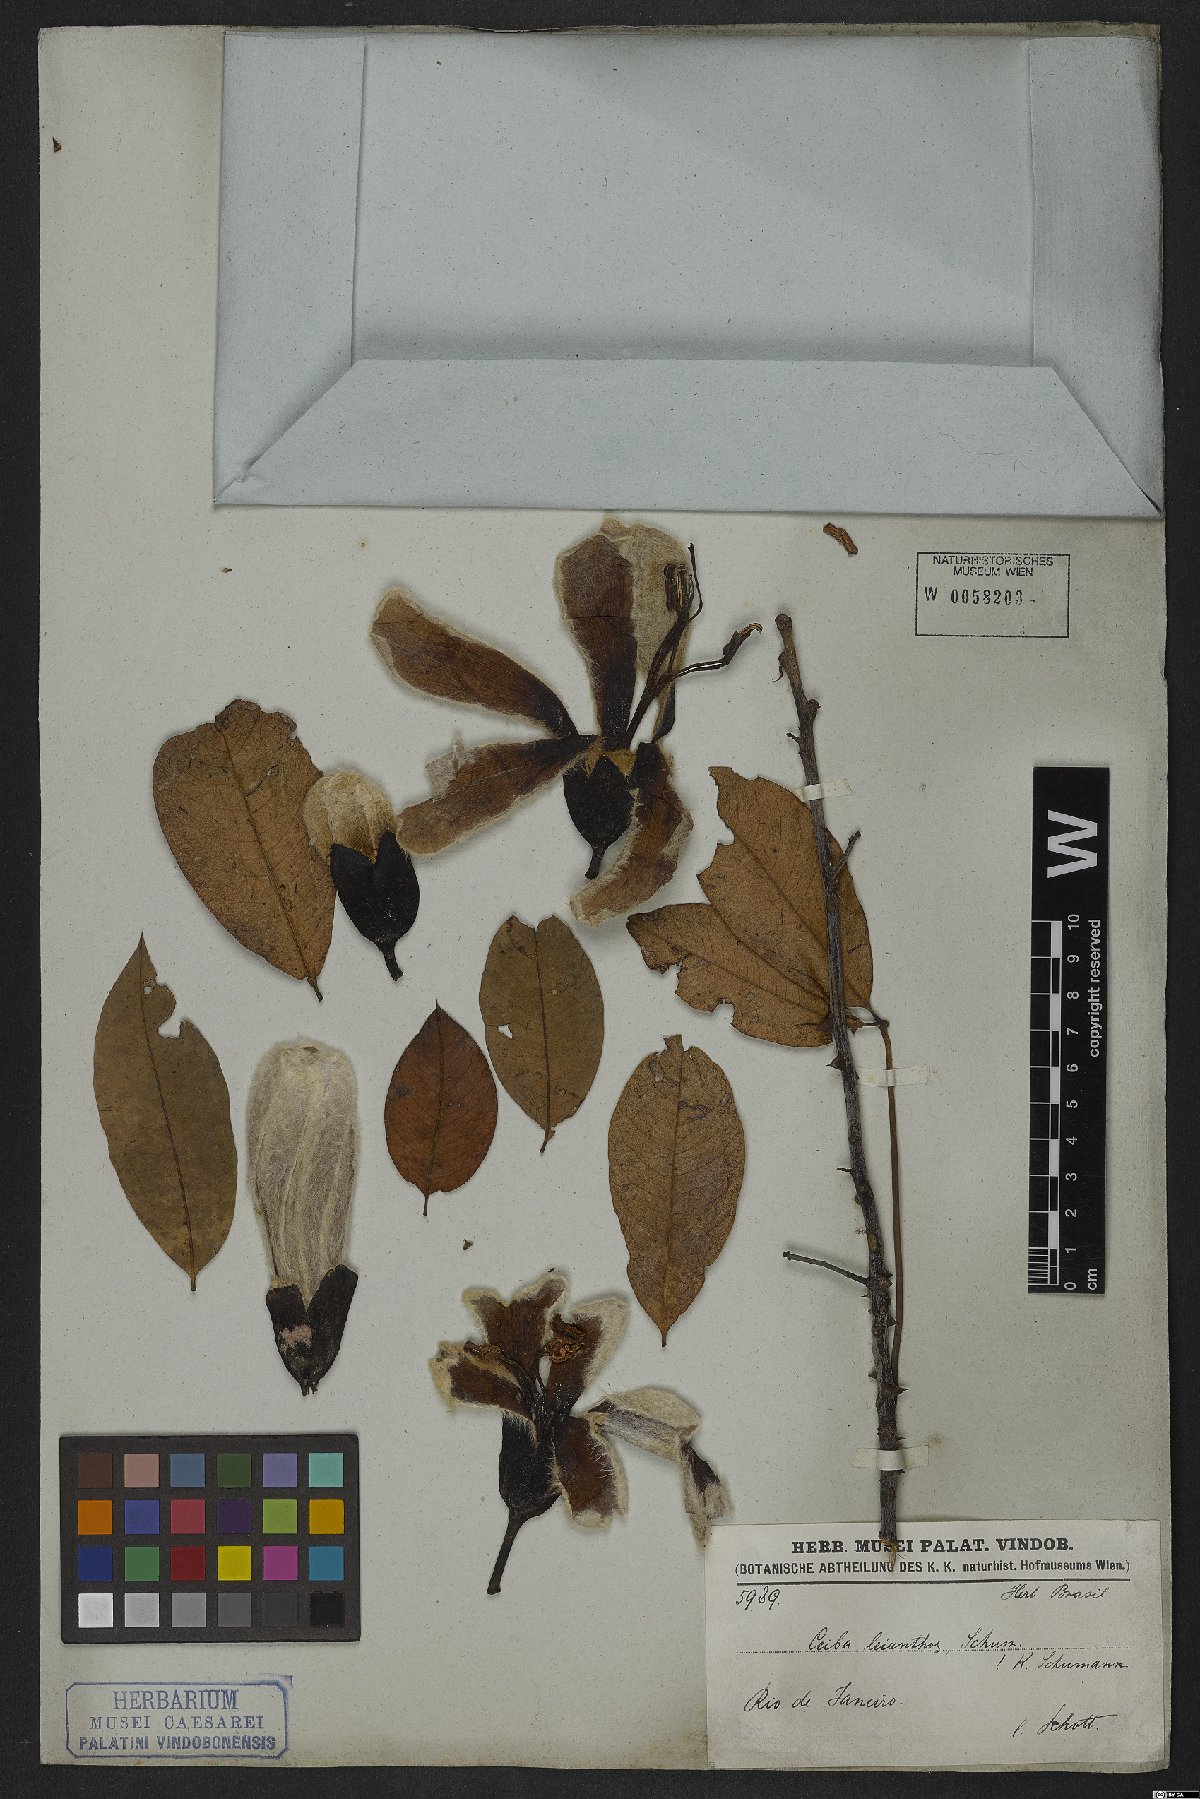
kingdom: Plantae
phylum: Tracheophyta
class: Magnoliopsida
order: Malvales
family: Malvaceae
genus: Ceiba
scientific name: Ceiba erianthos
